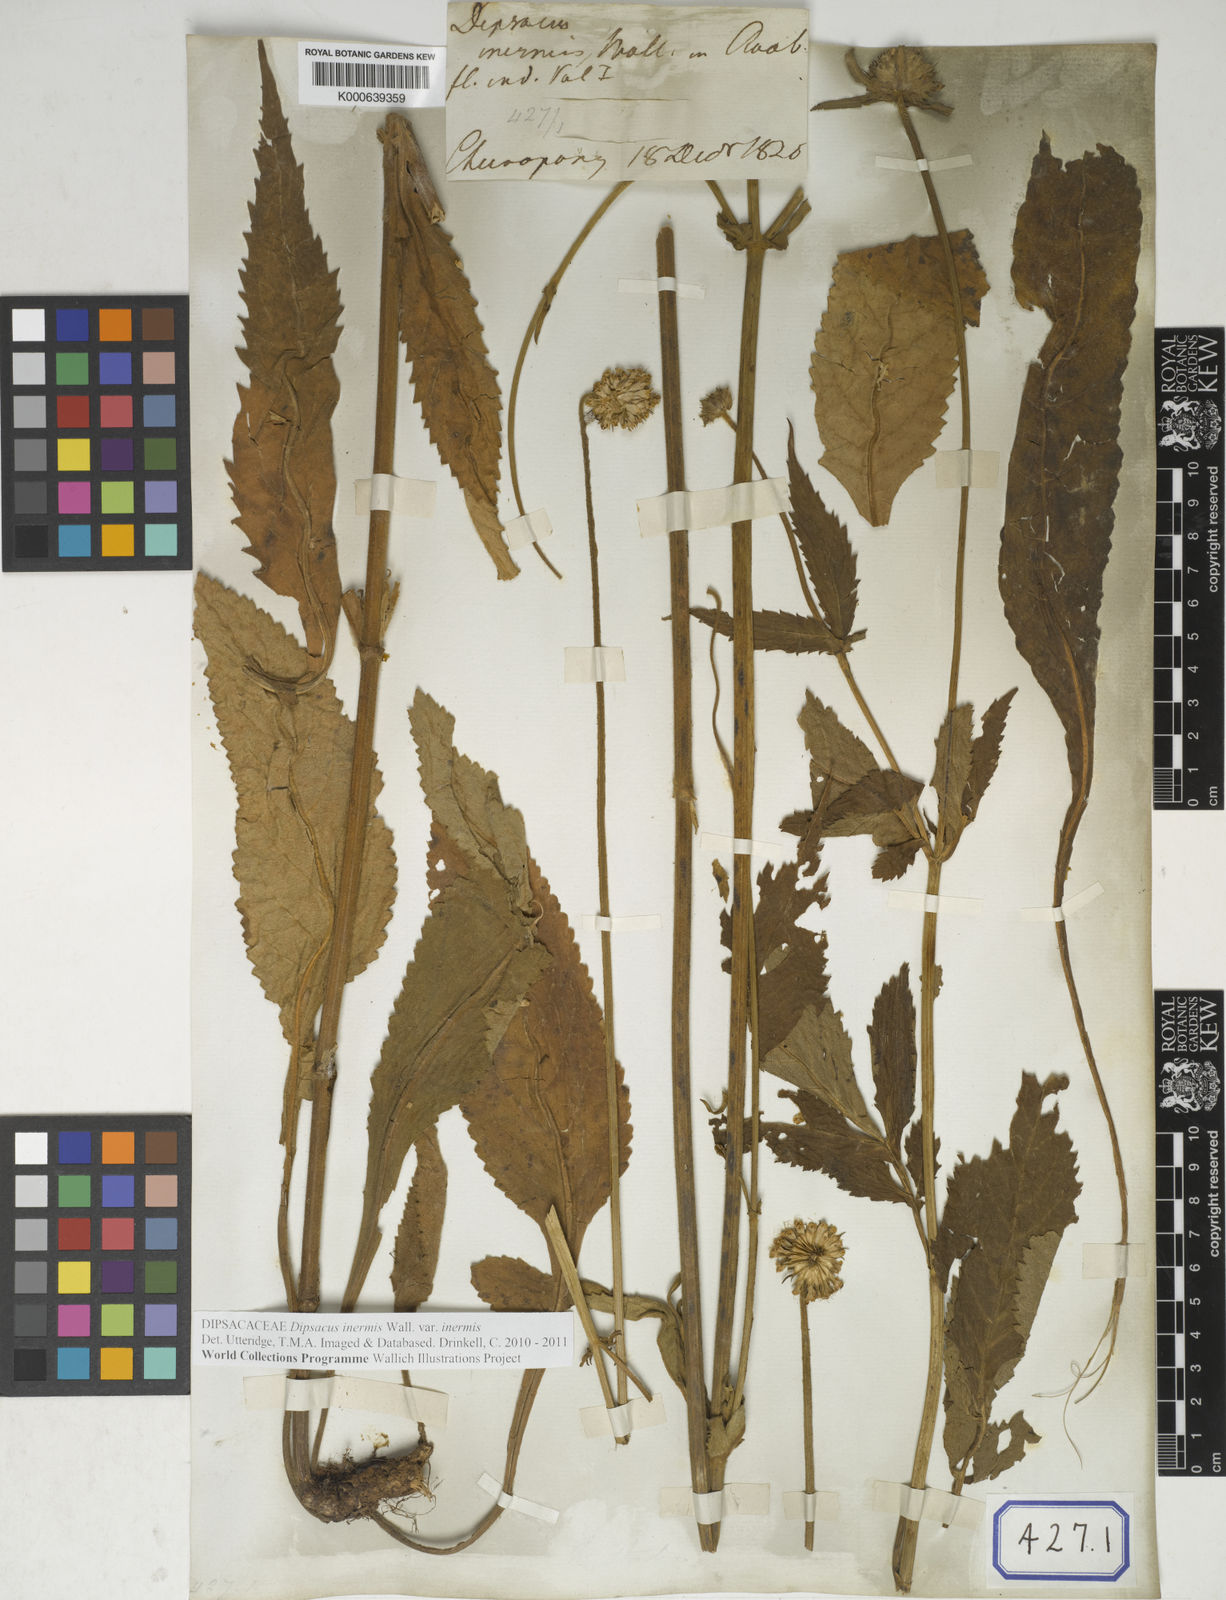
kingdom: Plantae
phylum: Tracheophyta
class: Magnoliopsida
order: Dipsacales
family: Caprifoliaceae
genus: Dipsacus
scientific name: Dipsacus inermis
